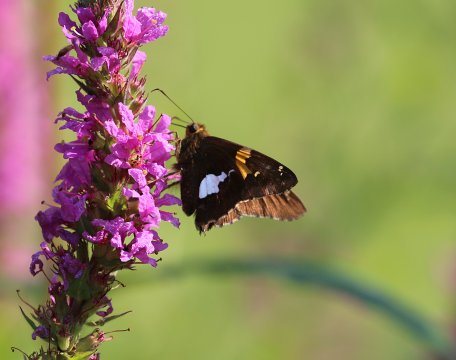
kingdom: Animalia
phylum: Arthropoda
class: Insecta
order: Lepidoptera
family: Hesperiidae
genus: Epargyreus
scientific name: Epargyreus clarus
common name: Silver-spotted Skipper
